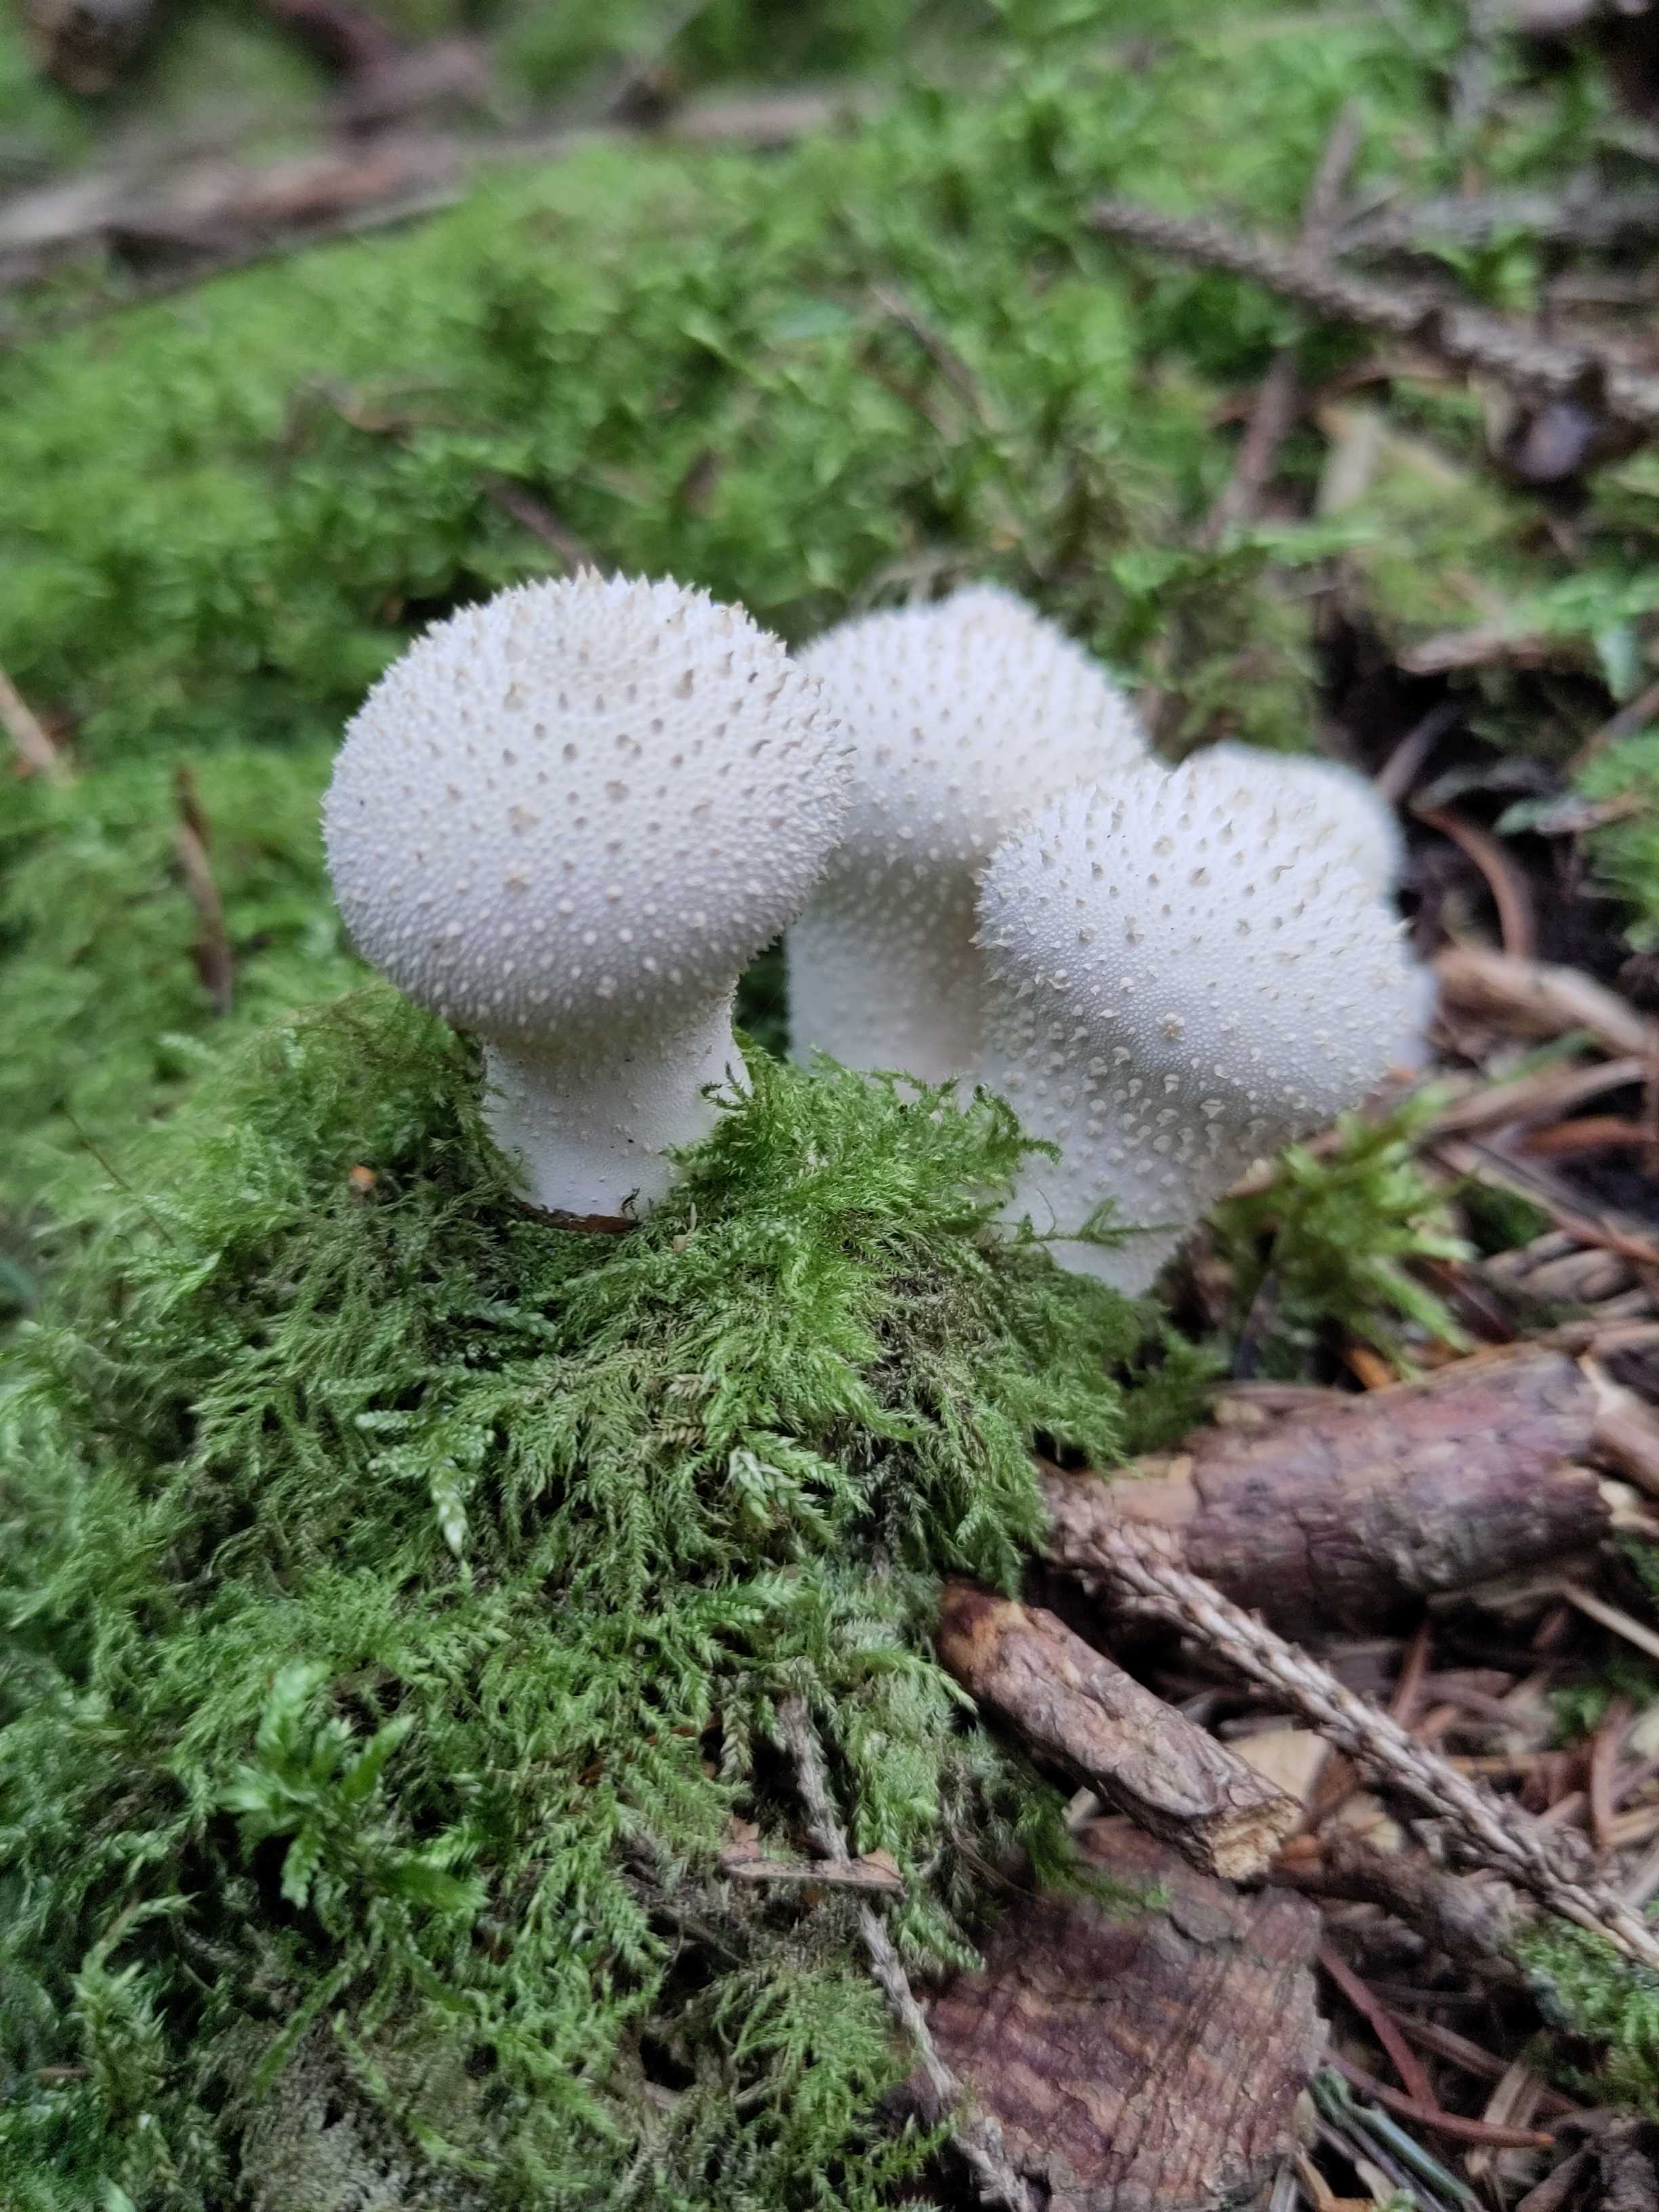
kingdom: Fungi
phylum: Basidiomycota
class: Agaricomycetes
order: Agaricales
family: Lycoperdaceae
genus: Lycoperdon
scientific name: Lycoperdon perlatum
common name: krystal-støvbold
